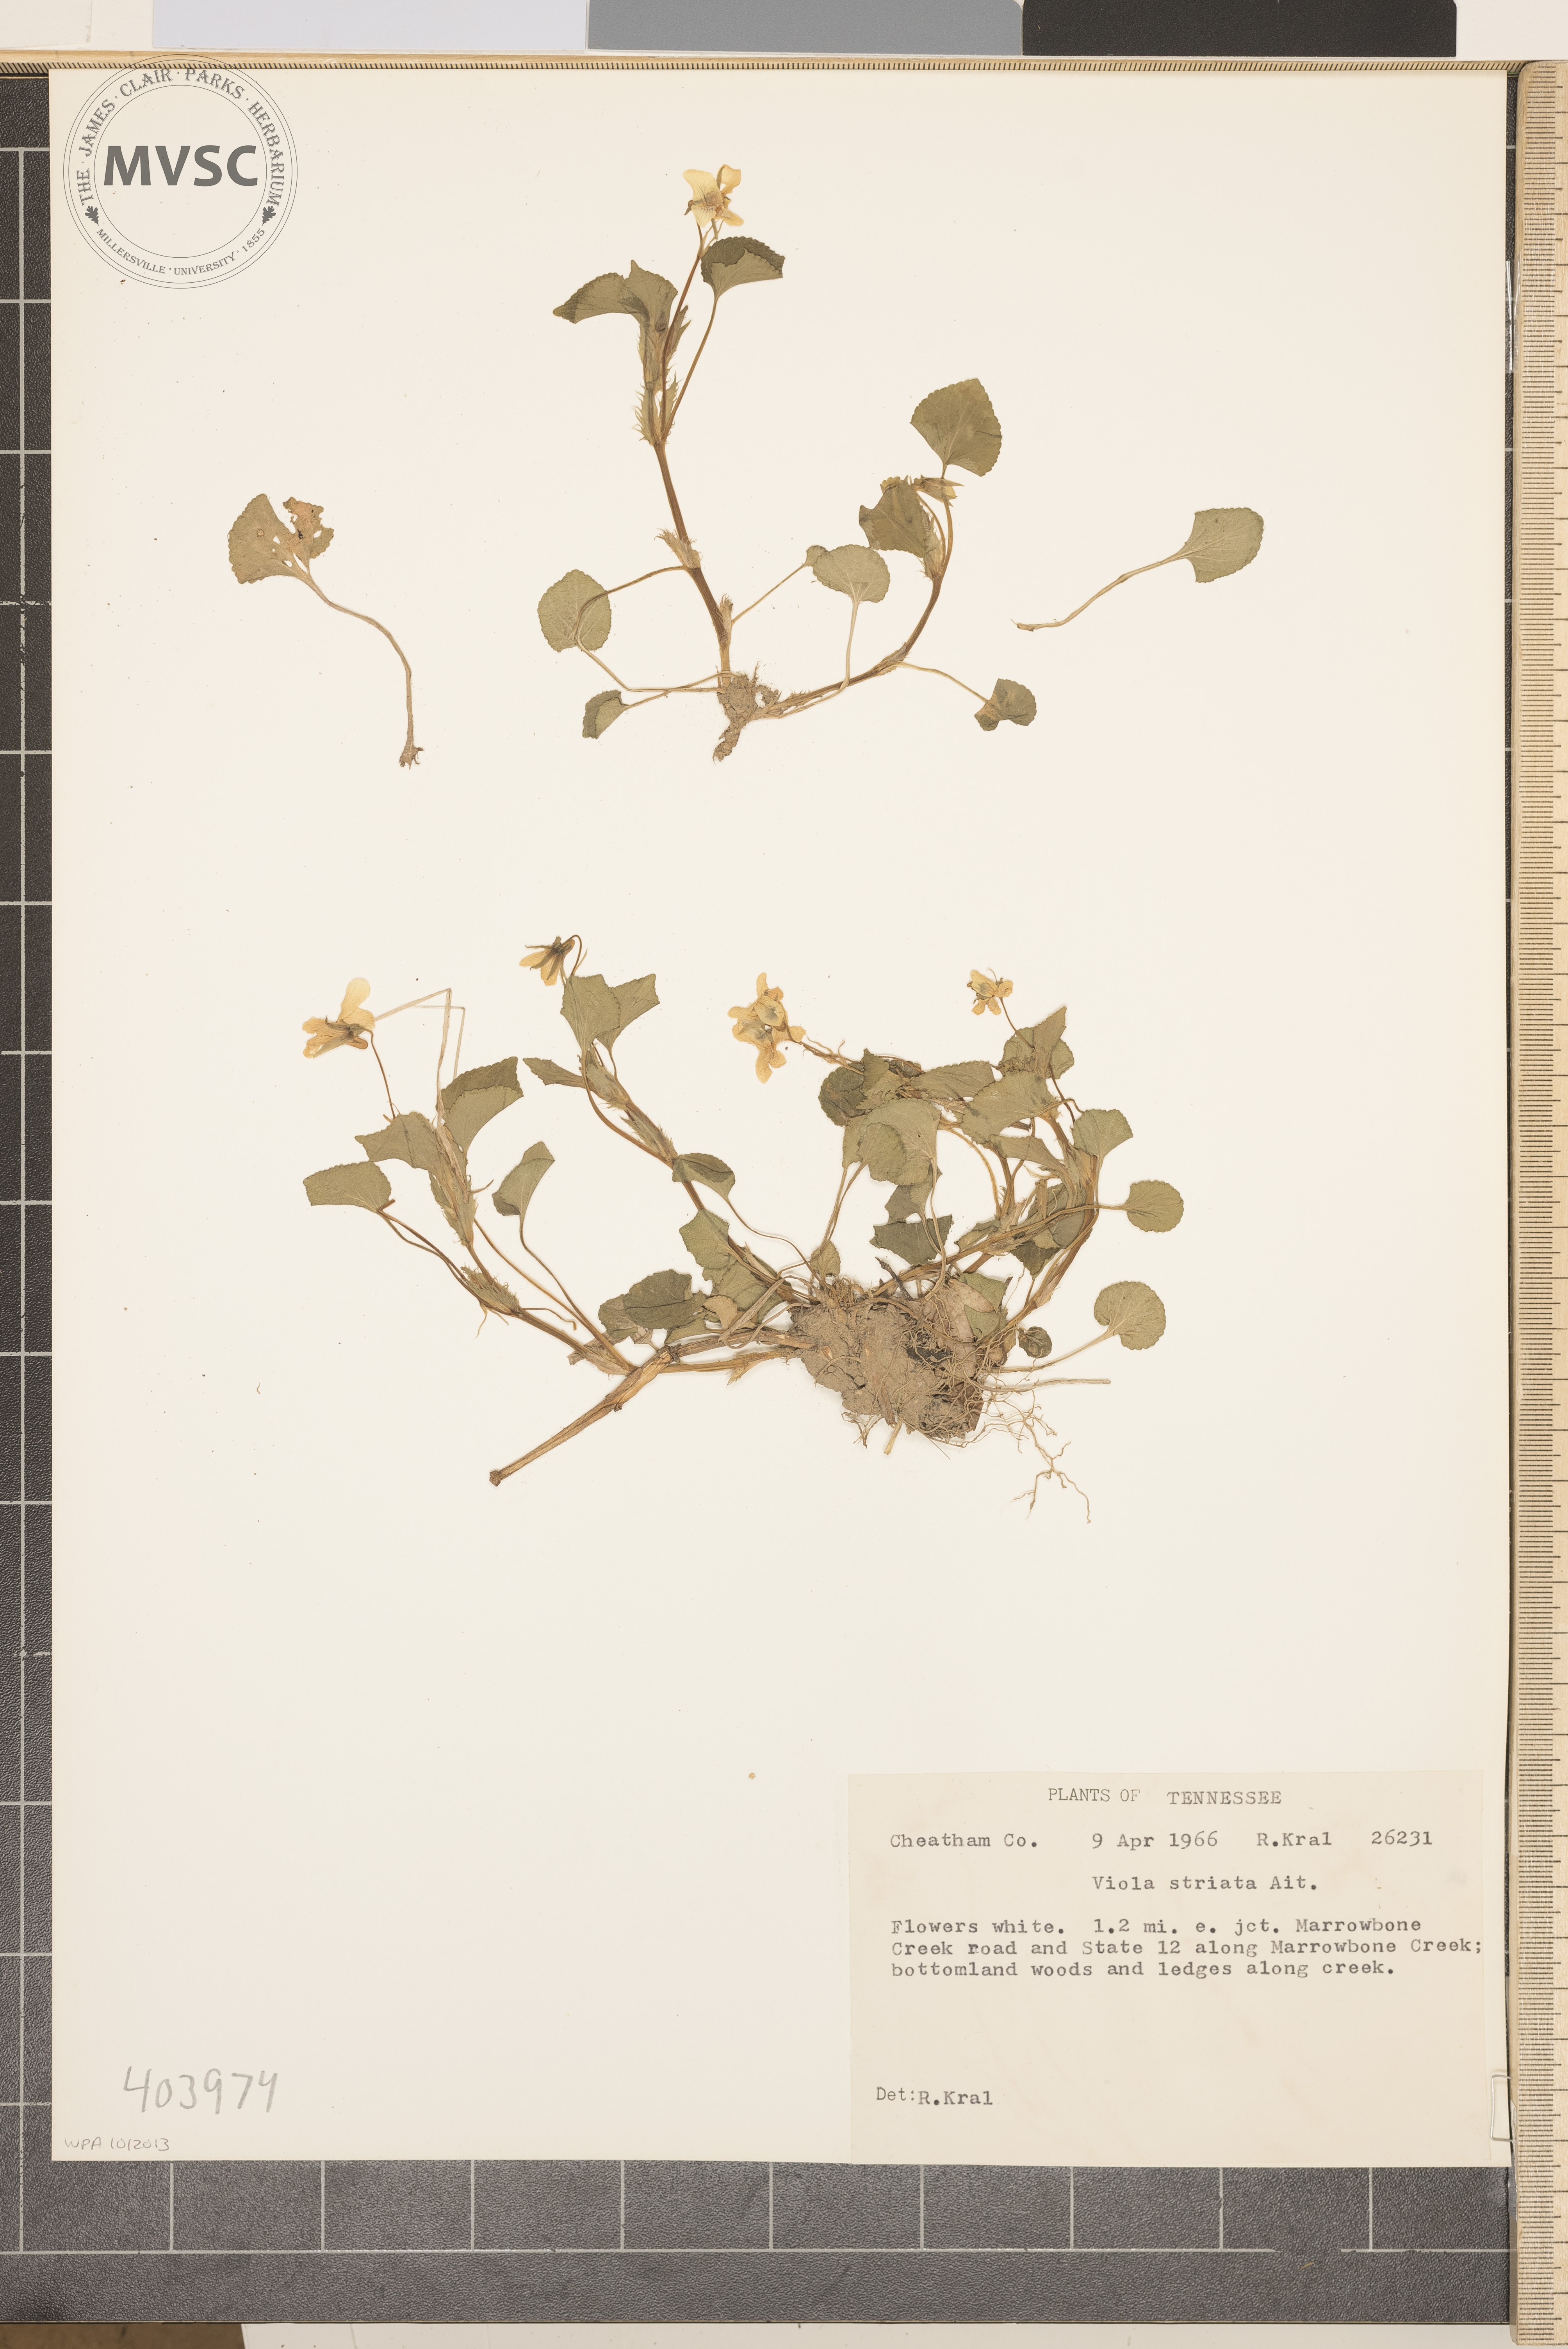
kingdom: Plantae
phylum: Tracheophyta
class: Magnoliopsida
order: Malpighiales
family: Violaceae
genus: Viola
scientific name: Viola striata
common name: Cream violet
